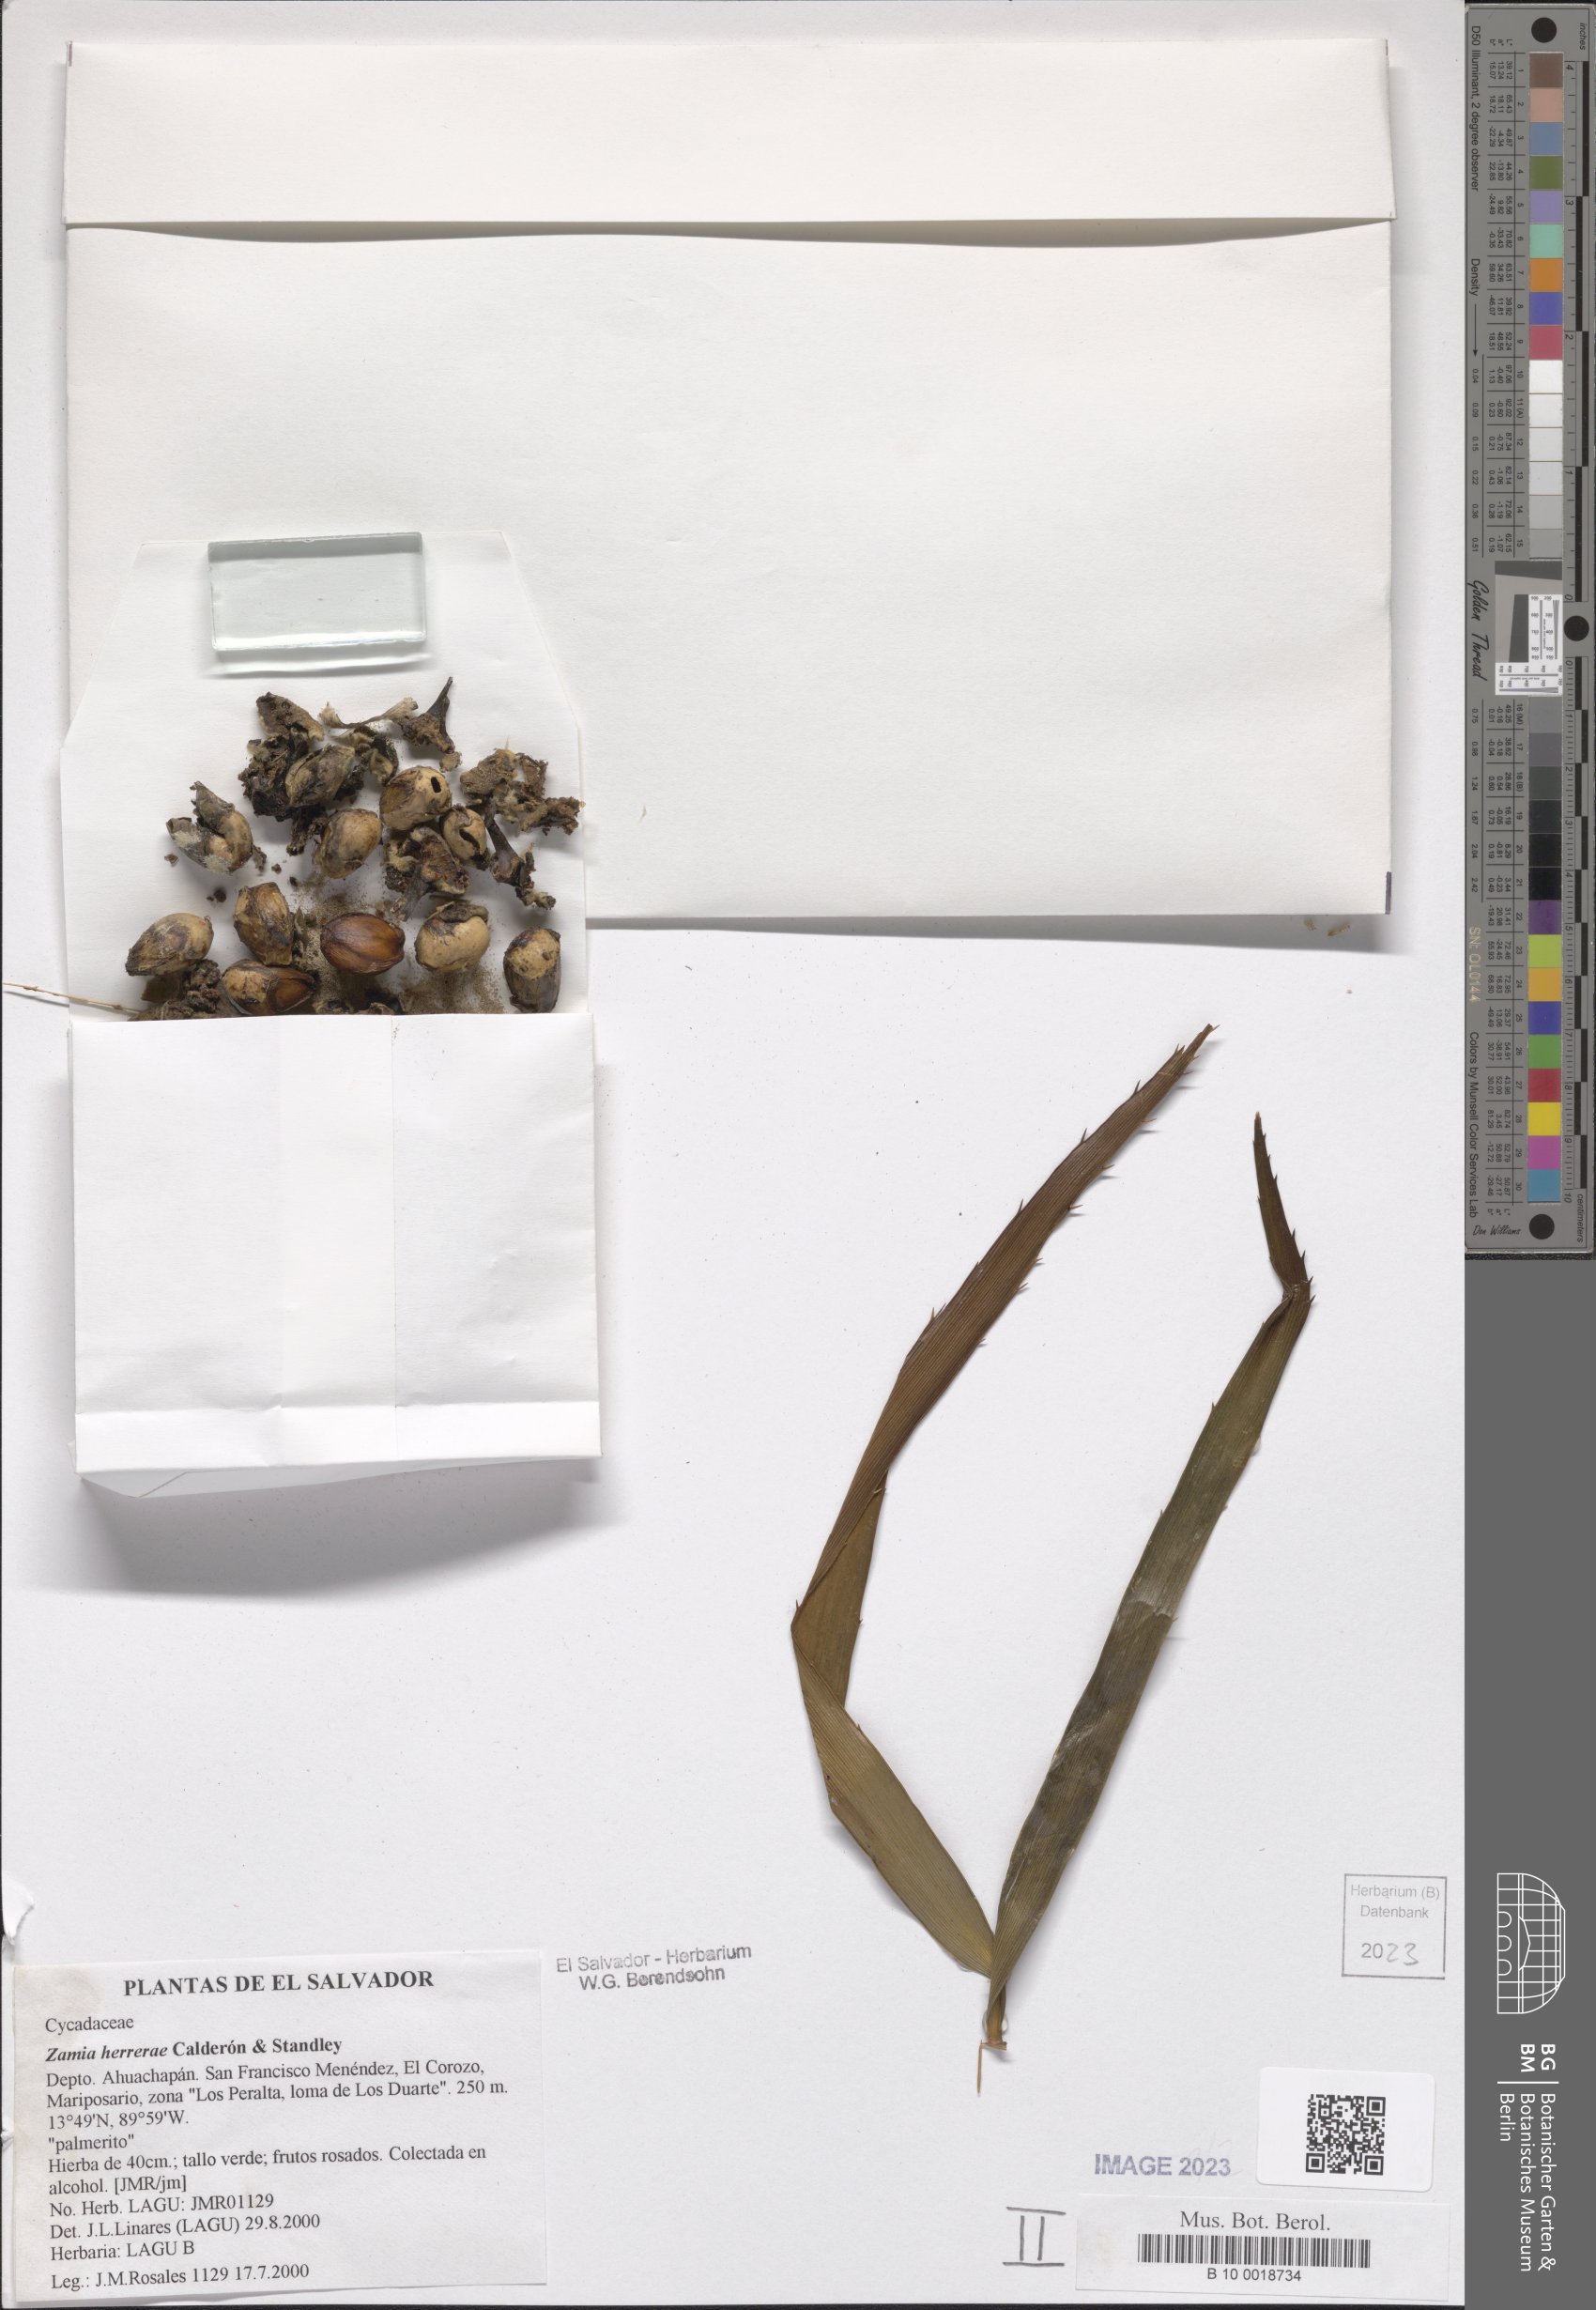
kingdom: Plantae
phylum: Tracheophyta
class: Cycadopsida
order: Cycadales
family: Zamiaceae
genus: Zamia
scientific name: Zamia herrerae
